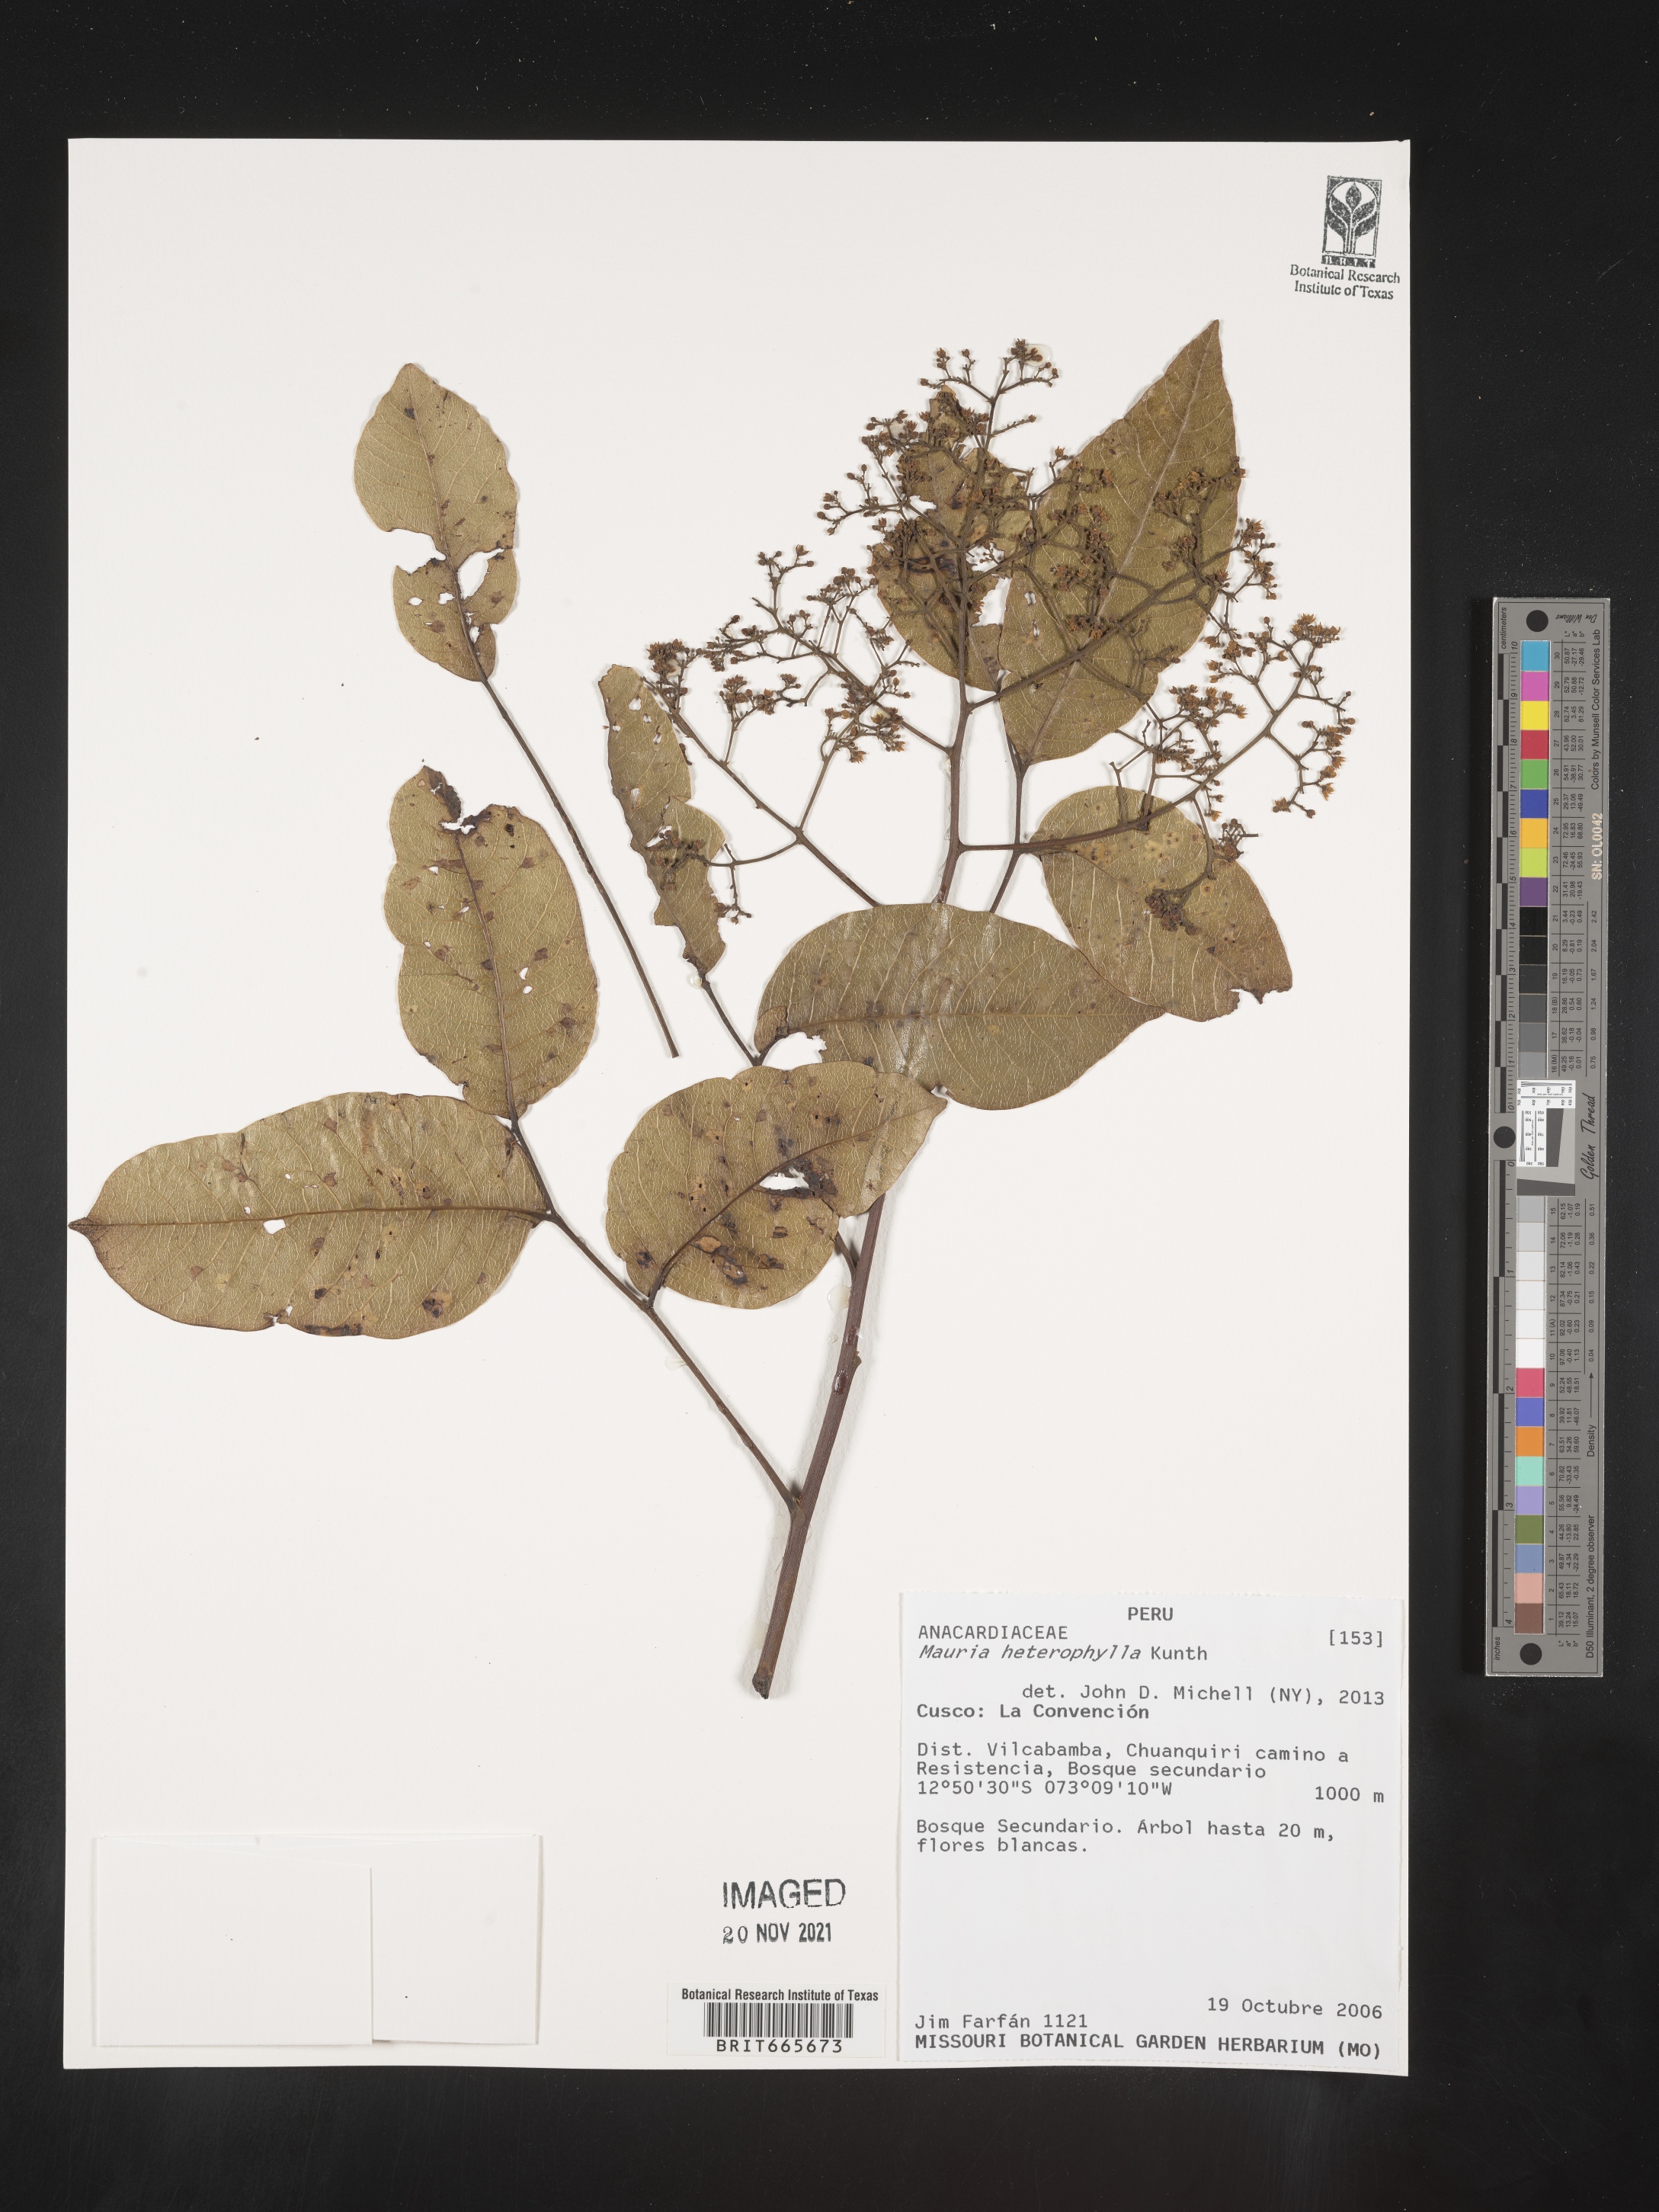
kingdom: Plantae
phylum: Tracheophyta
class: Magnoliopsida
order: Sapindales
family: Anacardiaceae
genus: Mauria
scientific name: Mauria
